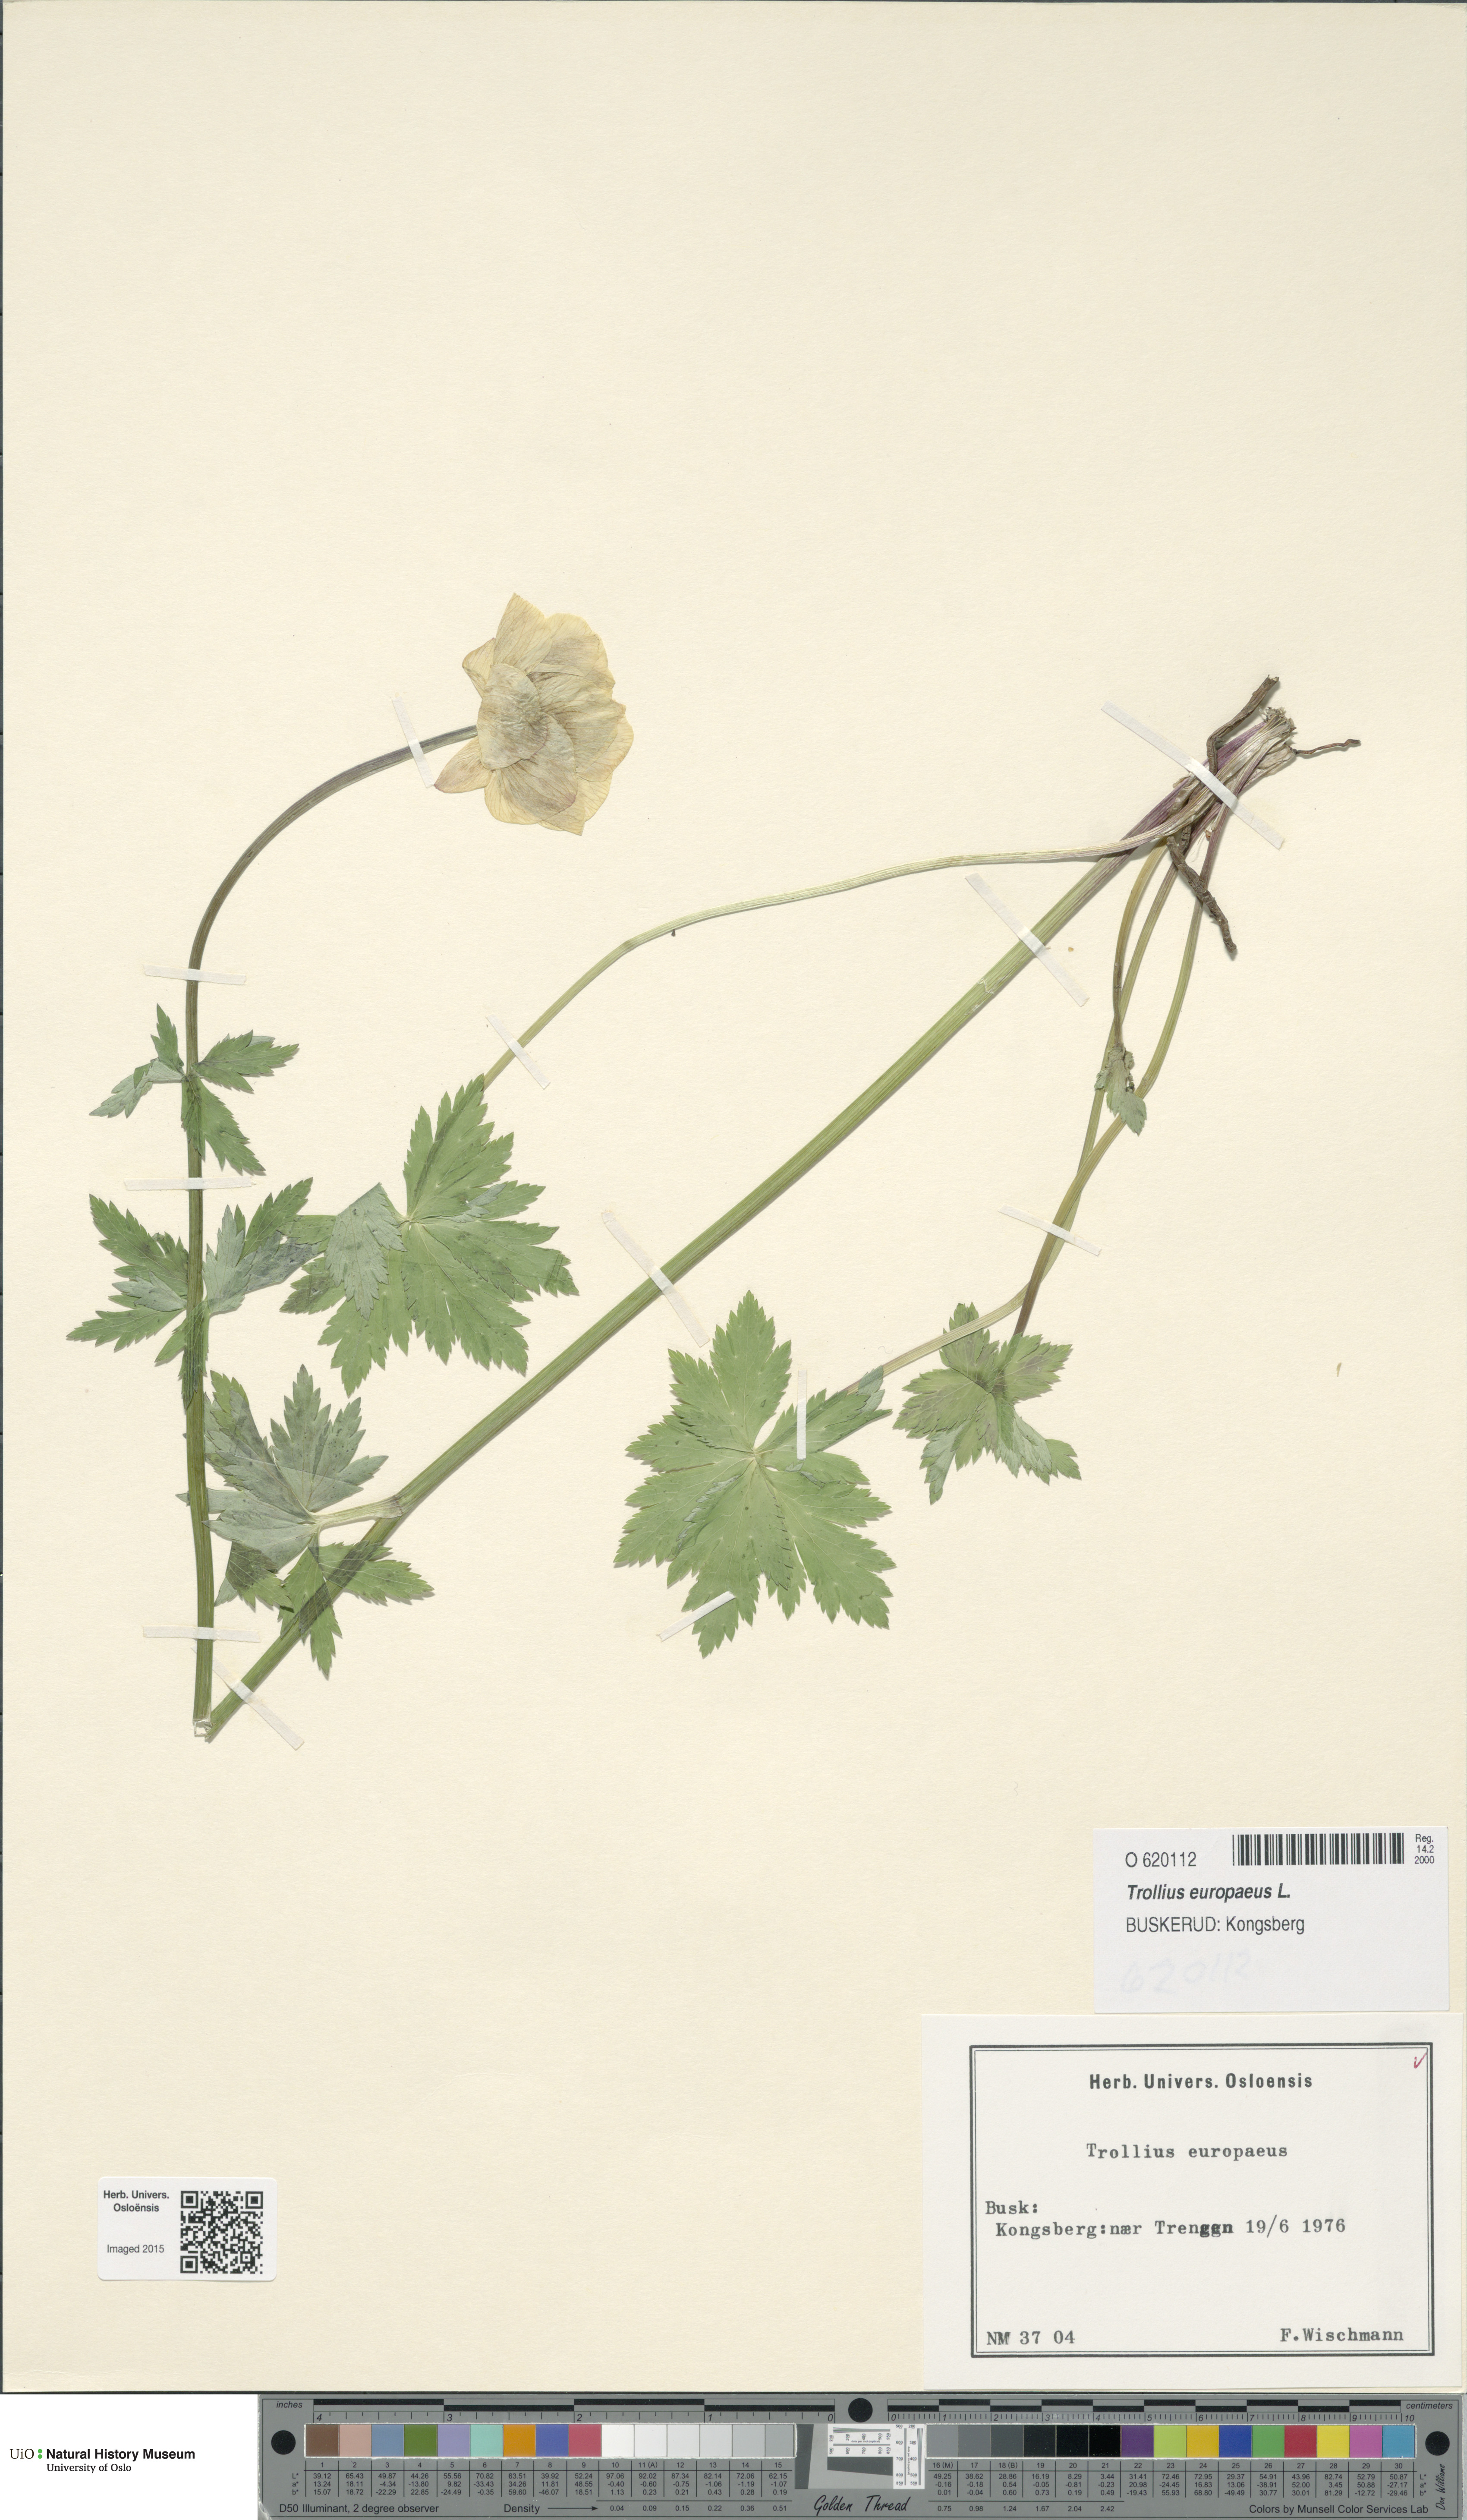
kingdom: Plantae
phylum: Tracheophyta
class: Magnoliopsida
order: Ranunculales
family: Ranunculaceae
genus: Trollius
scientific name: Trollius europaeus
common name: European globeflower
